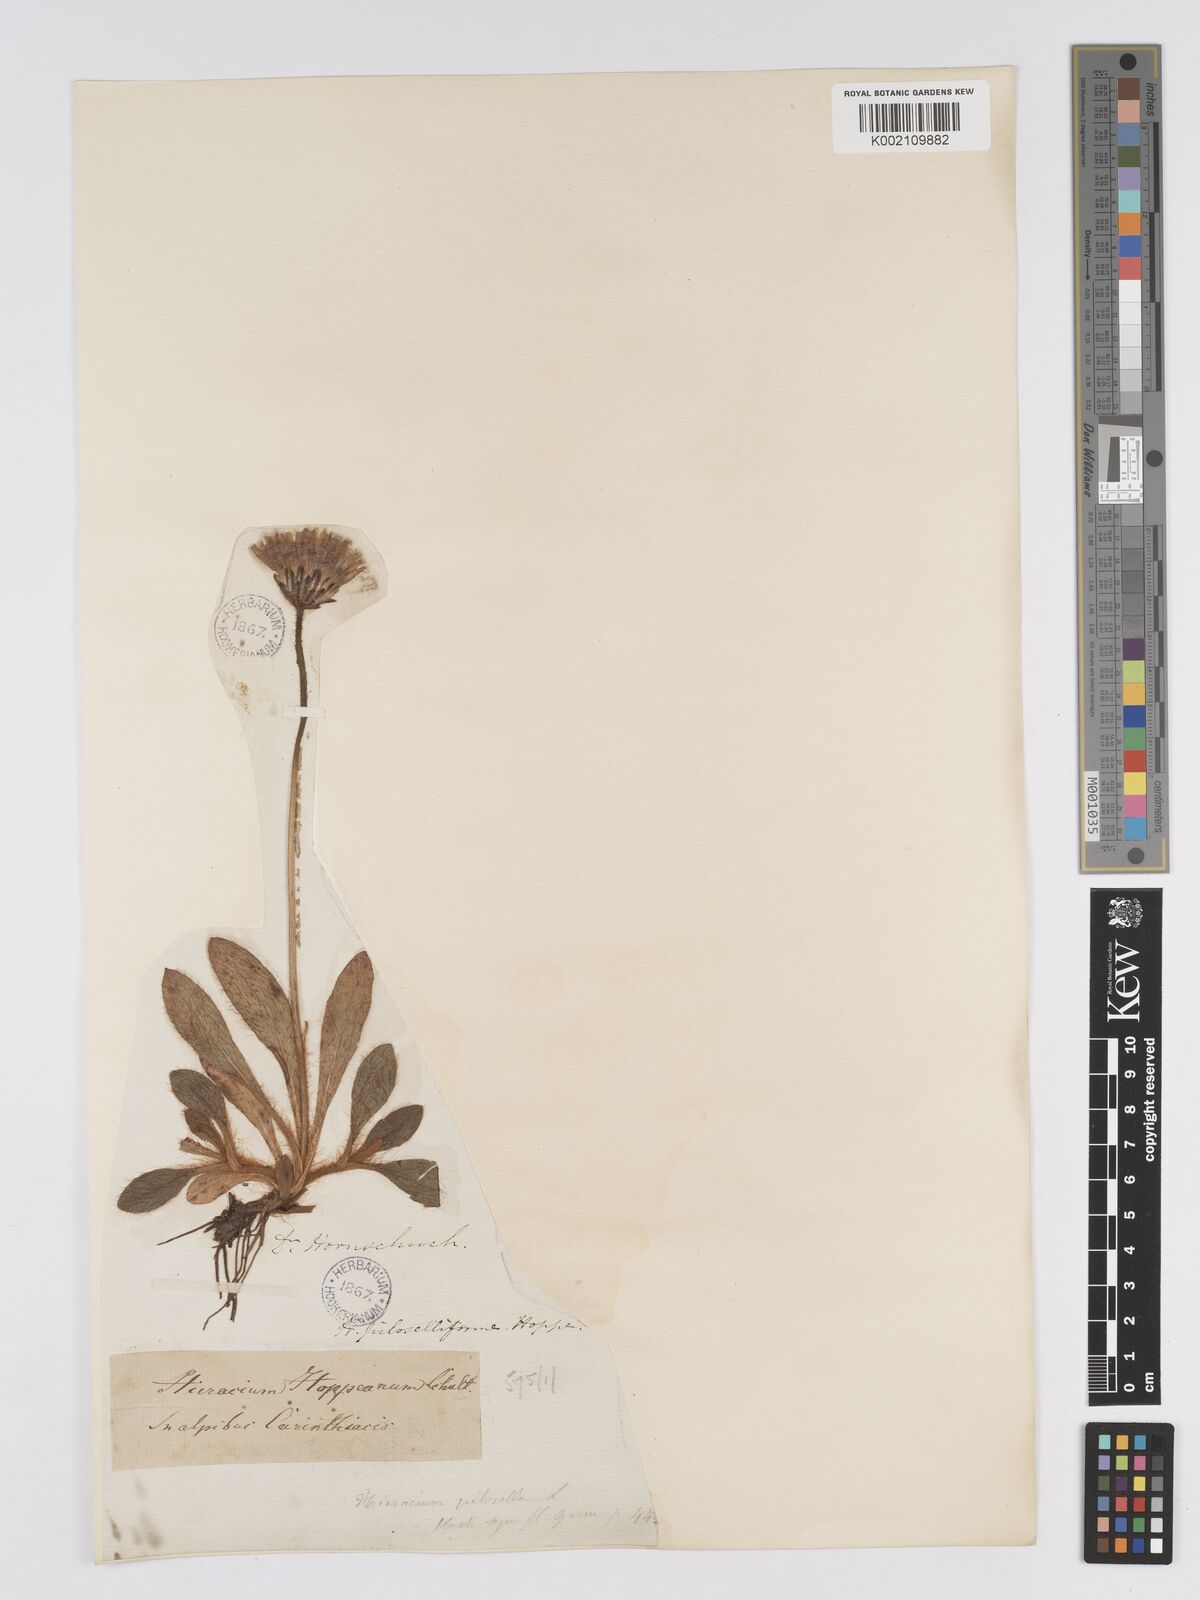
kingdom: Plantae
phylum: Tracheophyta
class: Magnoliopsida
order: Asterales
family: Asteraceae
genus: Pilosella
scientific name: Pilosella hoppeana
